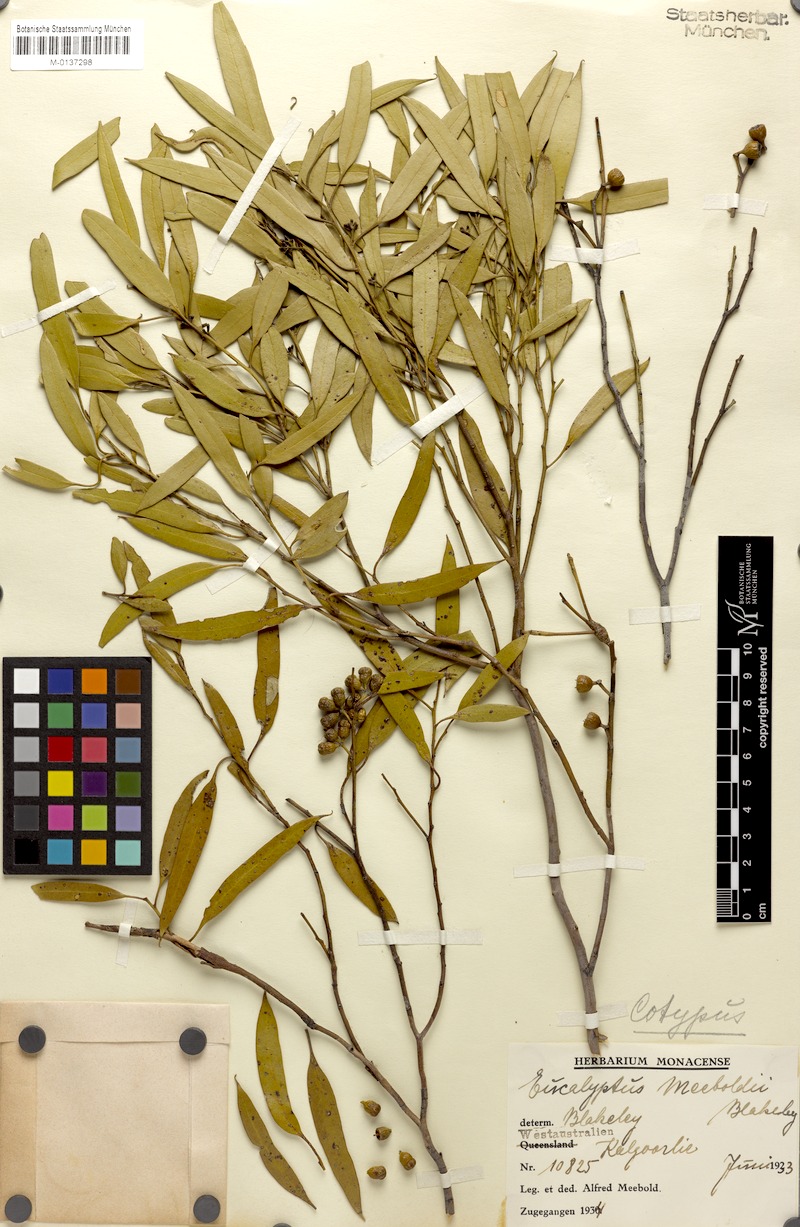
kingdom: Plantae
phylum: Tracheophyta
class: Magnoliopsida
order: Myrtales
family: Myrtaceae
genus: Eucalyptus
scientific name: Eucalyptus concinna
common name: Desert gum
